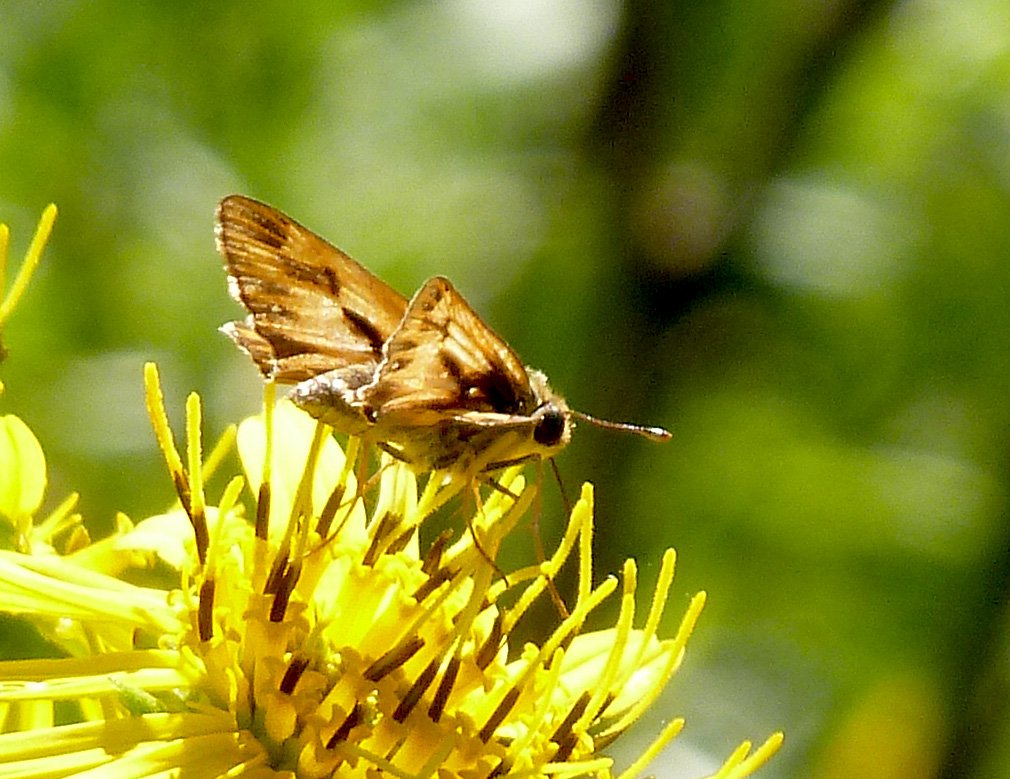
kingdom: Animalia
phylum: Arthropoda
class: Insecta
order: Lepidoptera
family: Hesperiidae
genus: Hylephila
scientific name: Hylephila phyleus
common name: Fiery Skipper
